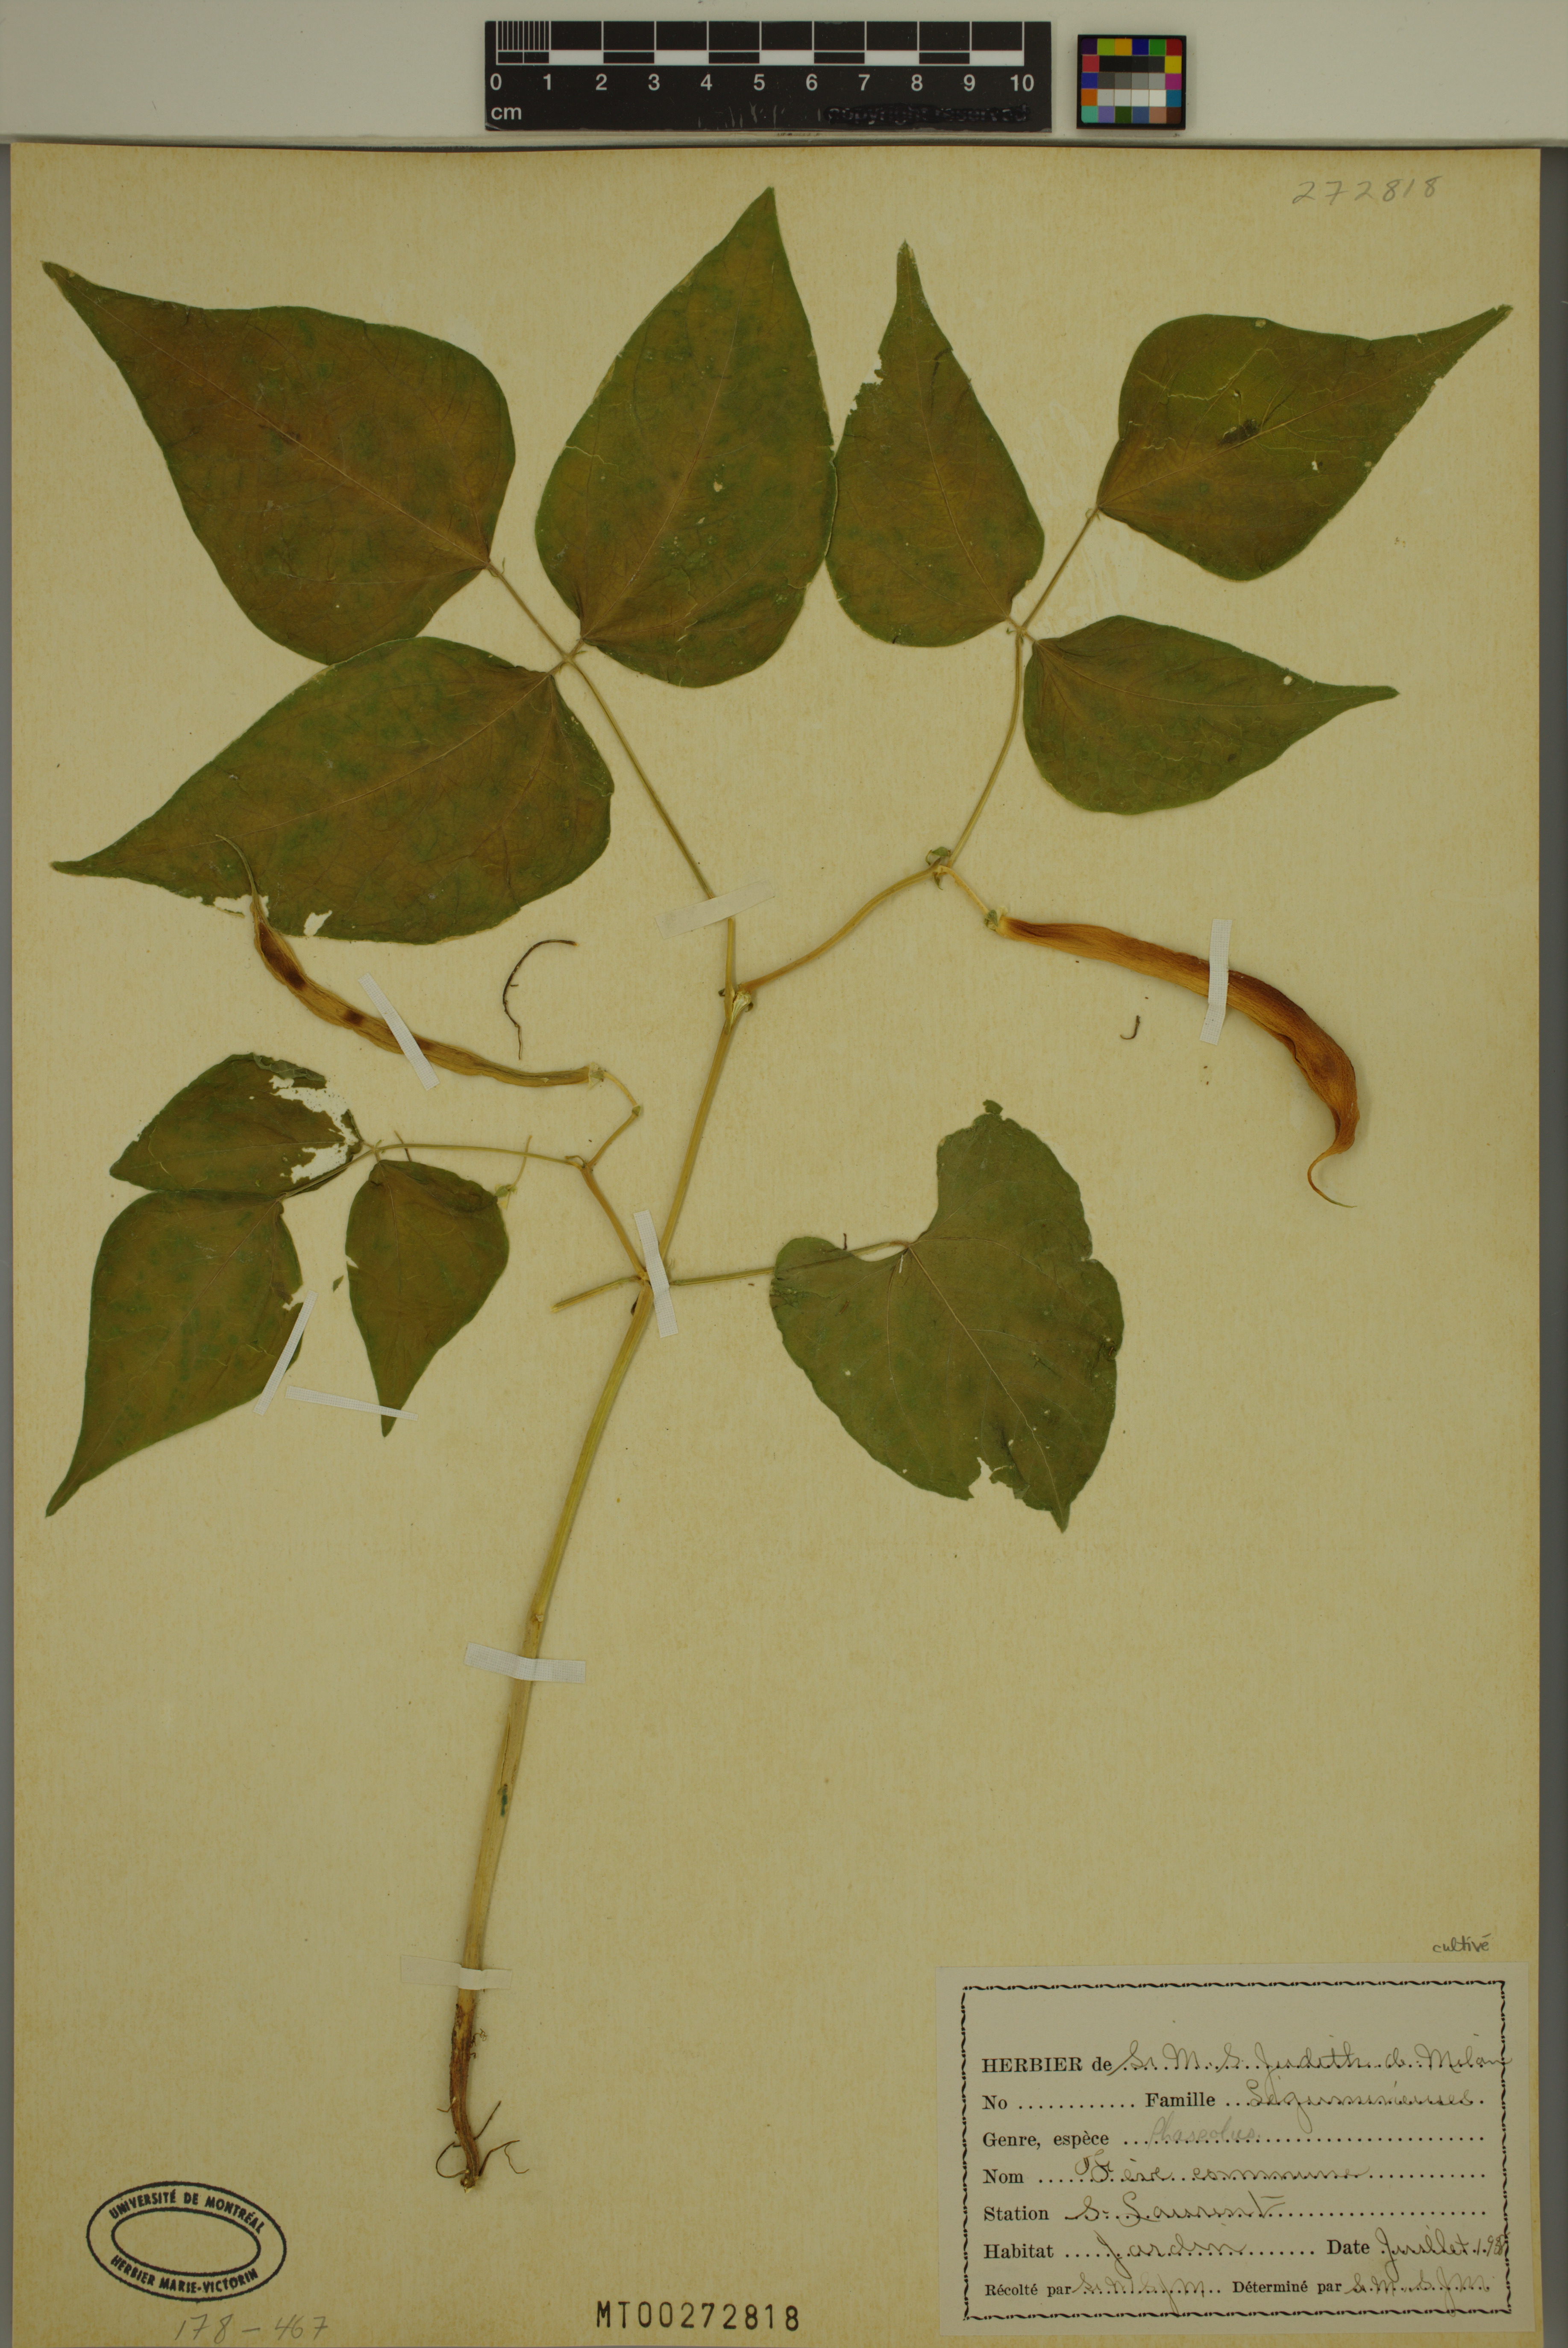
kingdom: Plantae
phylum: Tracheophyta
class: Magnoliopsida
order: Fabales
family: Fabaceae
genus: Phaseolus
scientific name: Phaseolus vulgaris
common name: Bean
